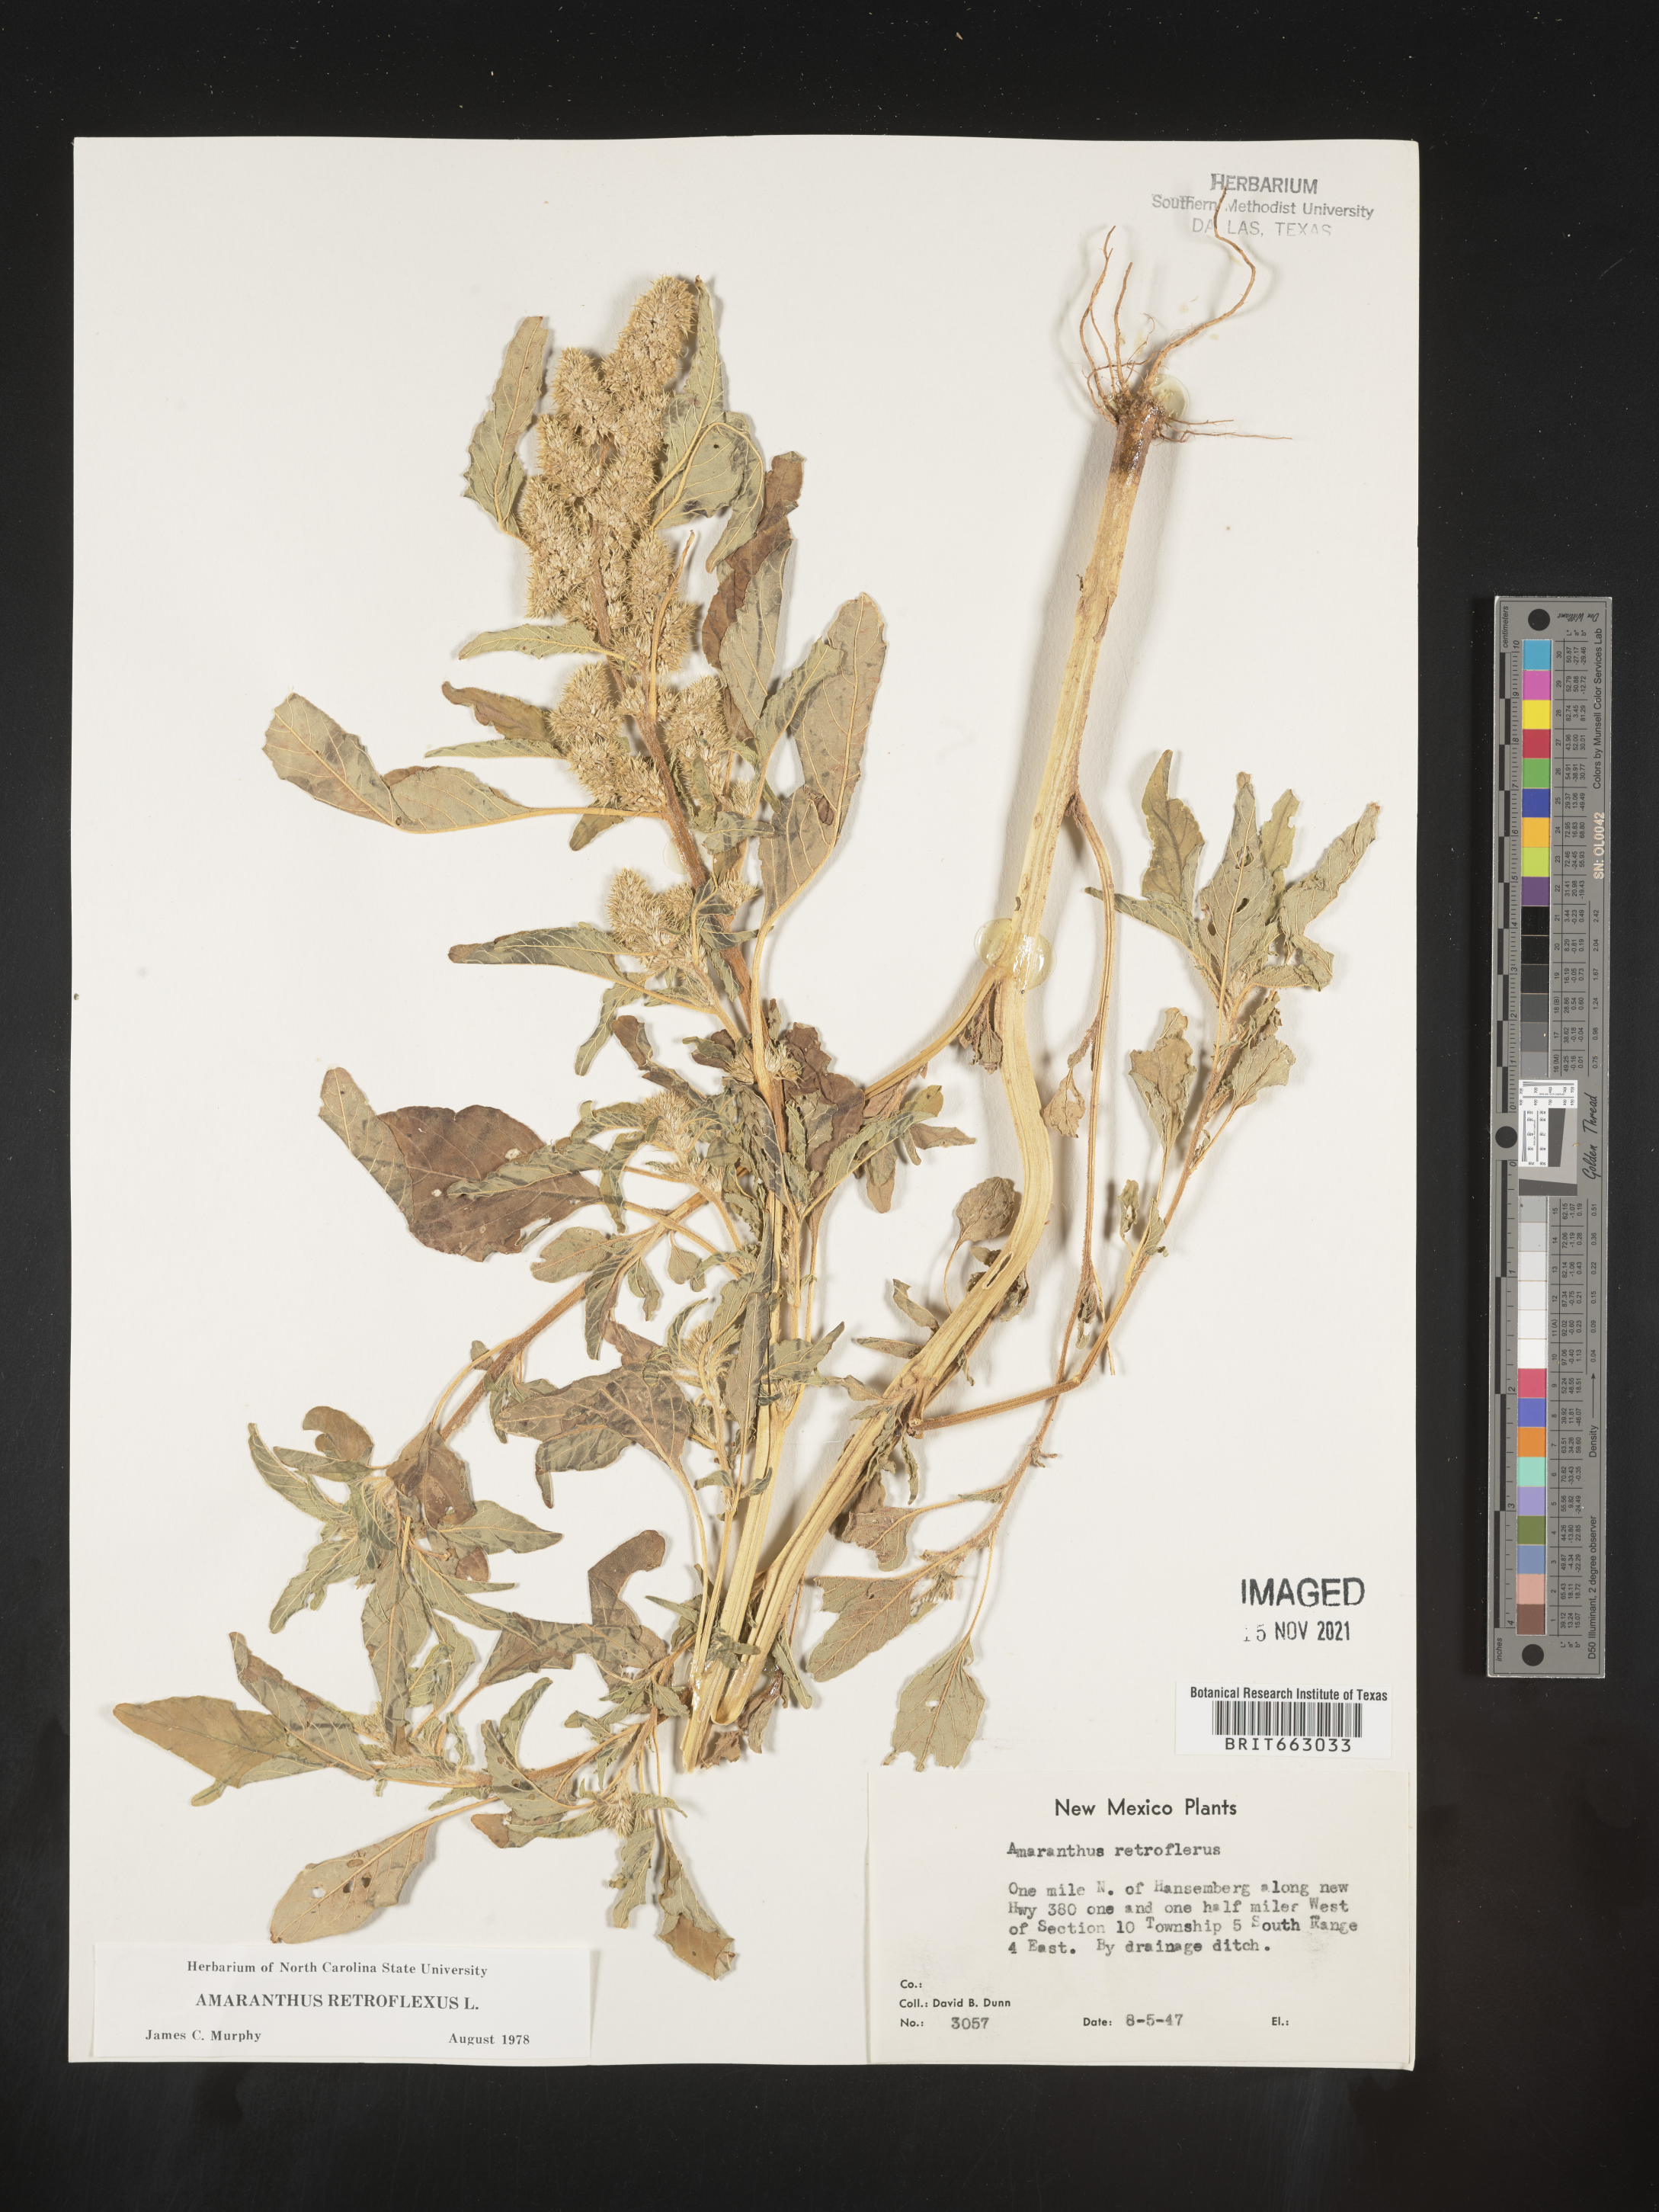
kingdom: Plantae
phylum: Tracheophyta
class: Magnoliopsida
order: Caryophyllales
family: Amaranthaceae
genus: Amaranthus
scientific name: Amaranthus retroflexus
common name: Redroot amaranth
